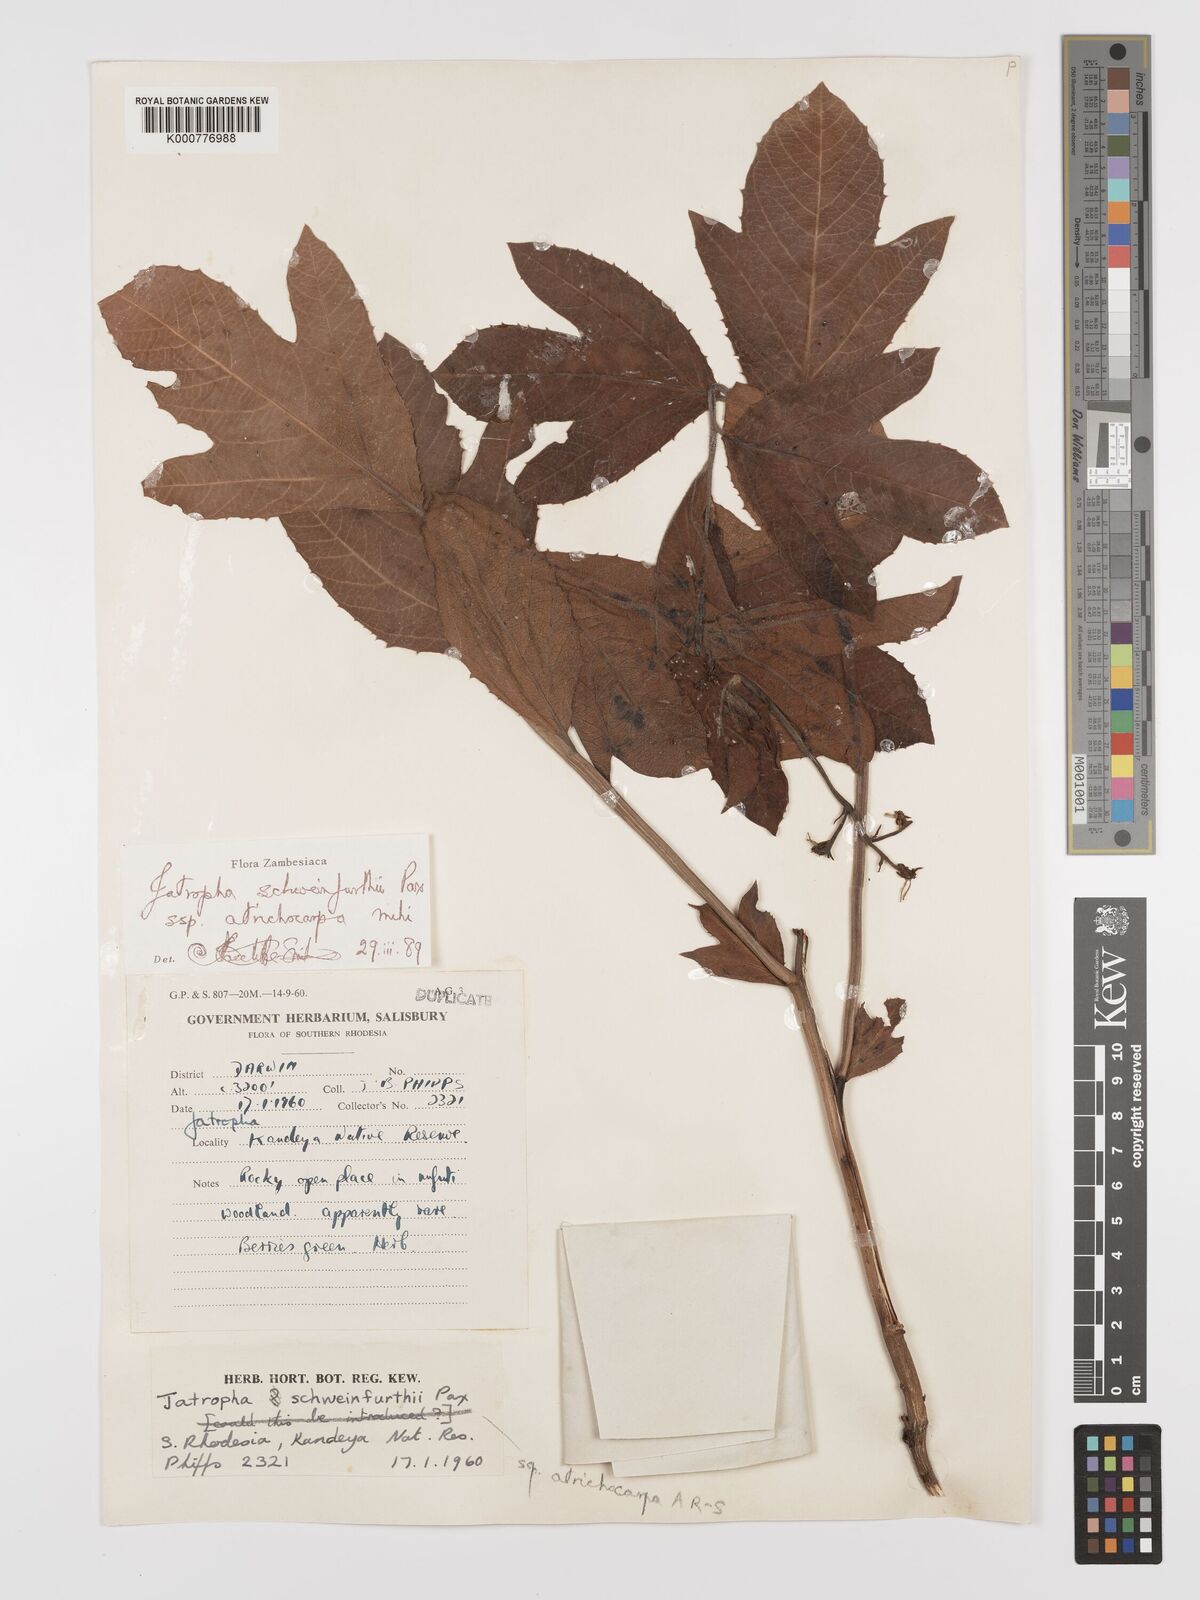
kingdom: Plantae
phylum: Tracheophyta
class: Magnoliopsida
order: Malpighiales
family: Euphorbiaceae
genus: Jatropha
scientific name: Jatropha schweinfurthii
